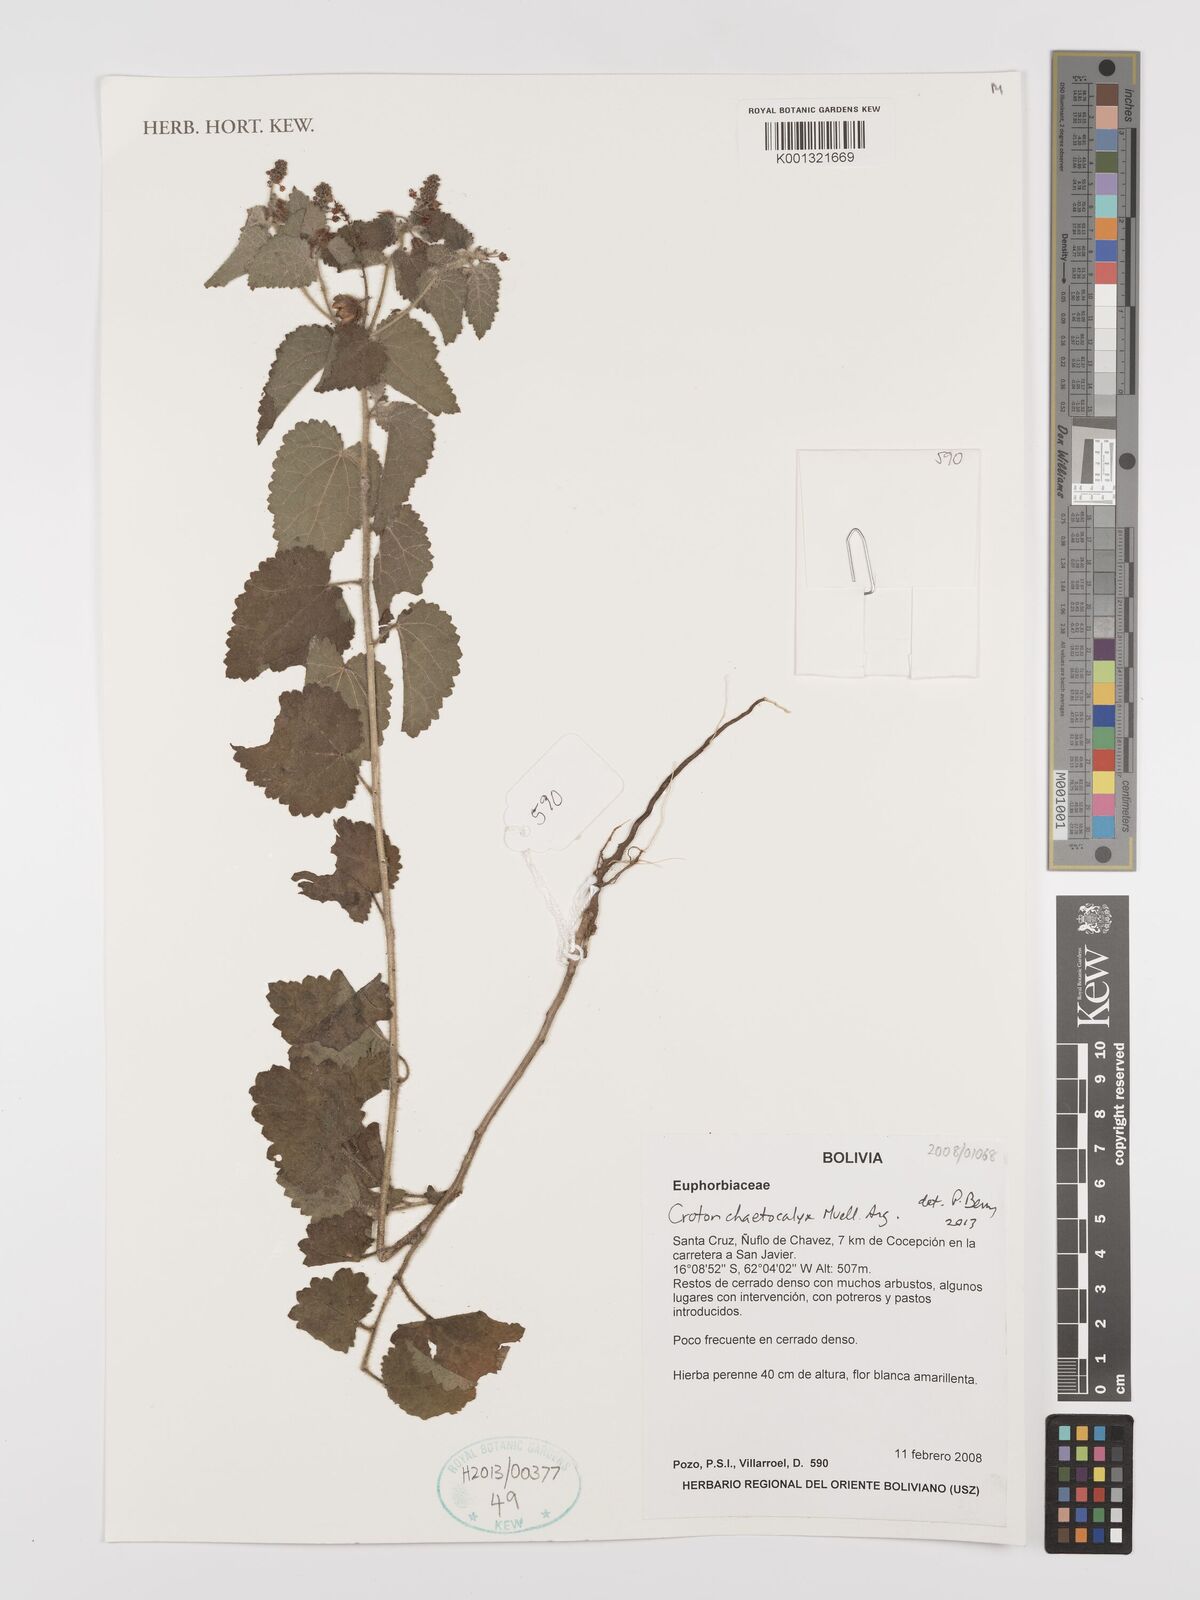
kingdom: Plantae
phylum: Tracheophyta
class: Magnoliopsida
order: Malpighiales
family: Euphorbiaceae
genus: Croton
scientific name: Croton catariae
